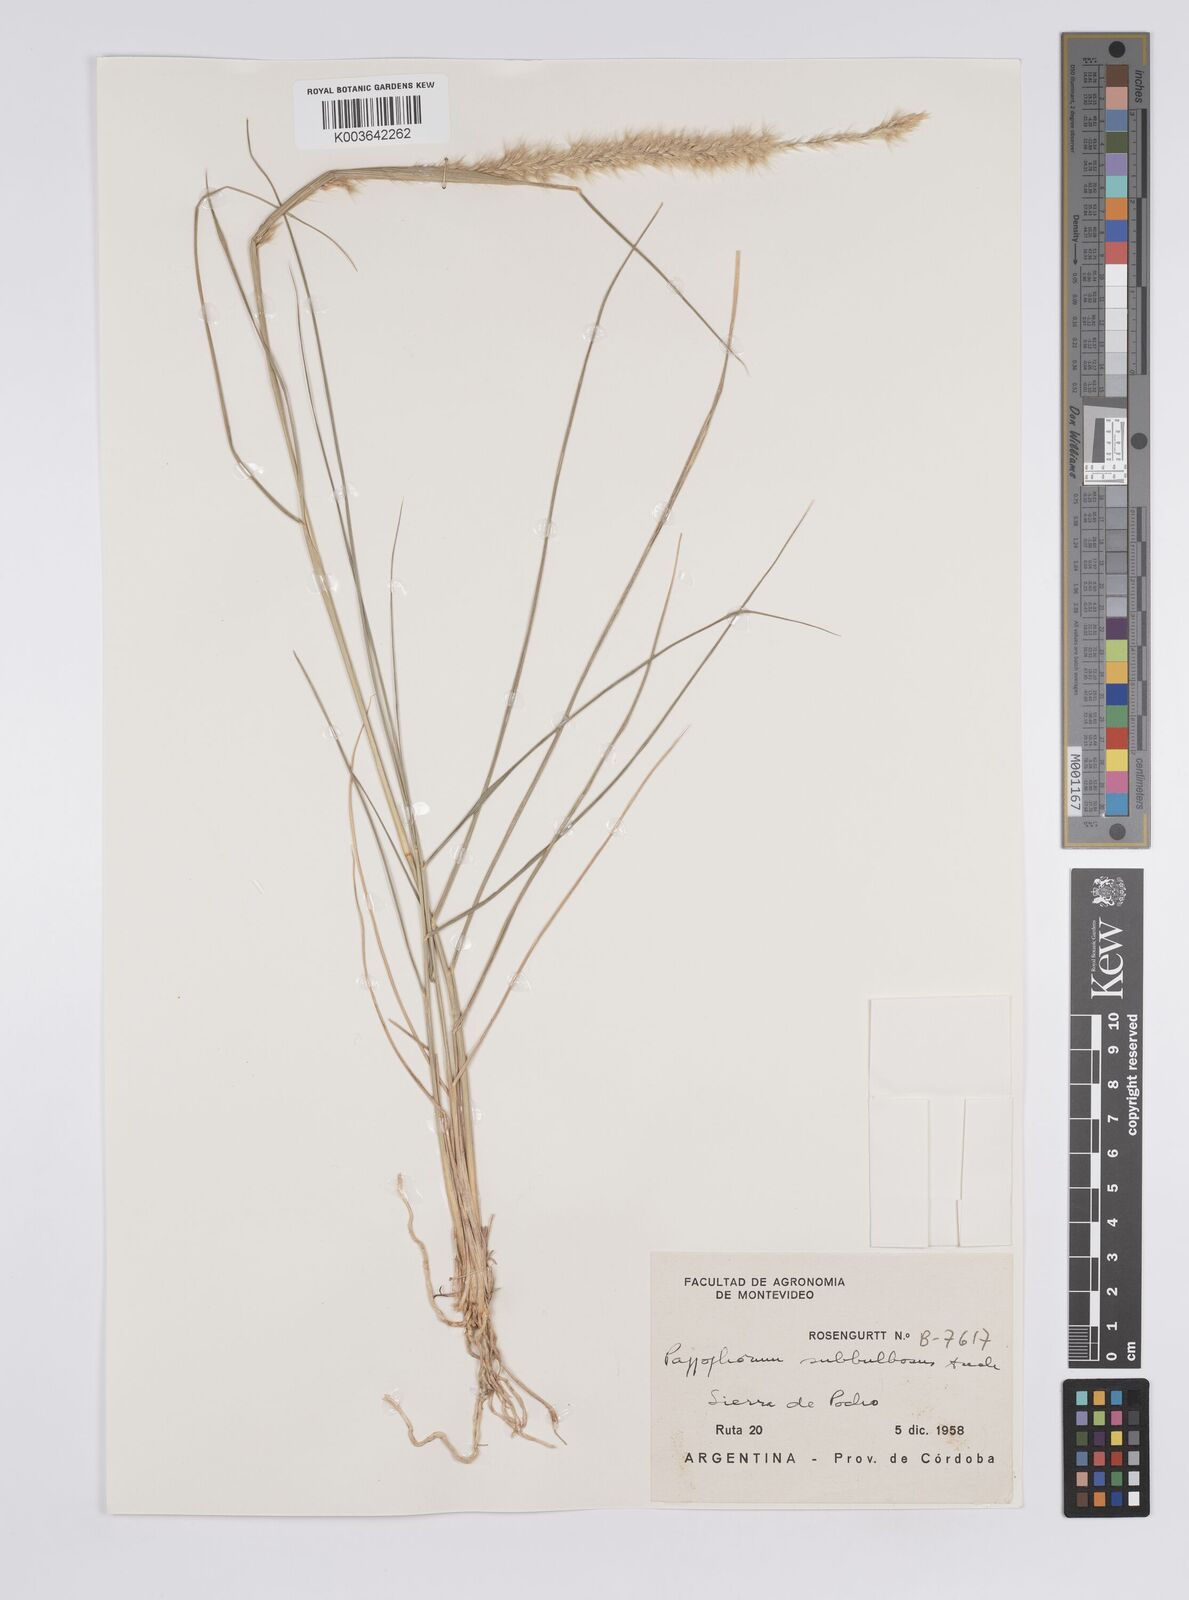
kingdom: Plantae
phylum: Tracheophyta
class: Liliopsida
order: Poales
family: Poaceae
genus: Pappophorum
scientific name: Pappophorum krapovickasii
